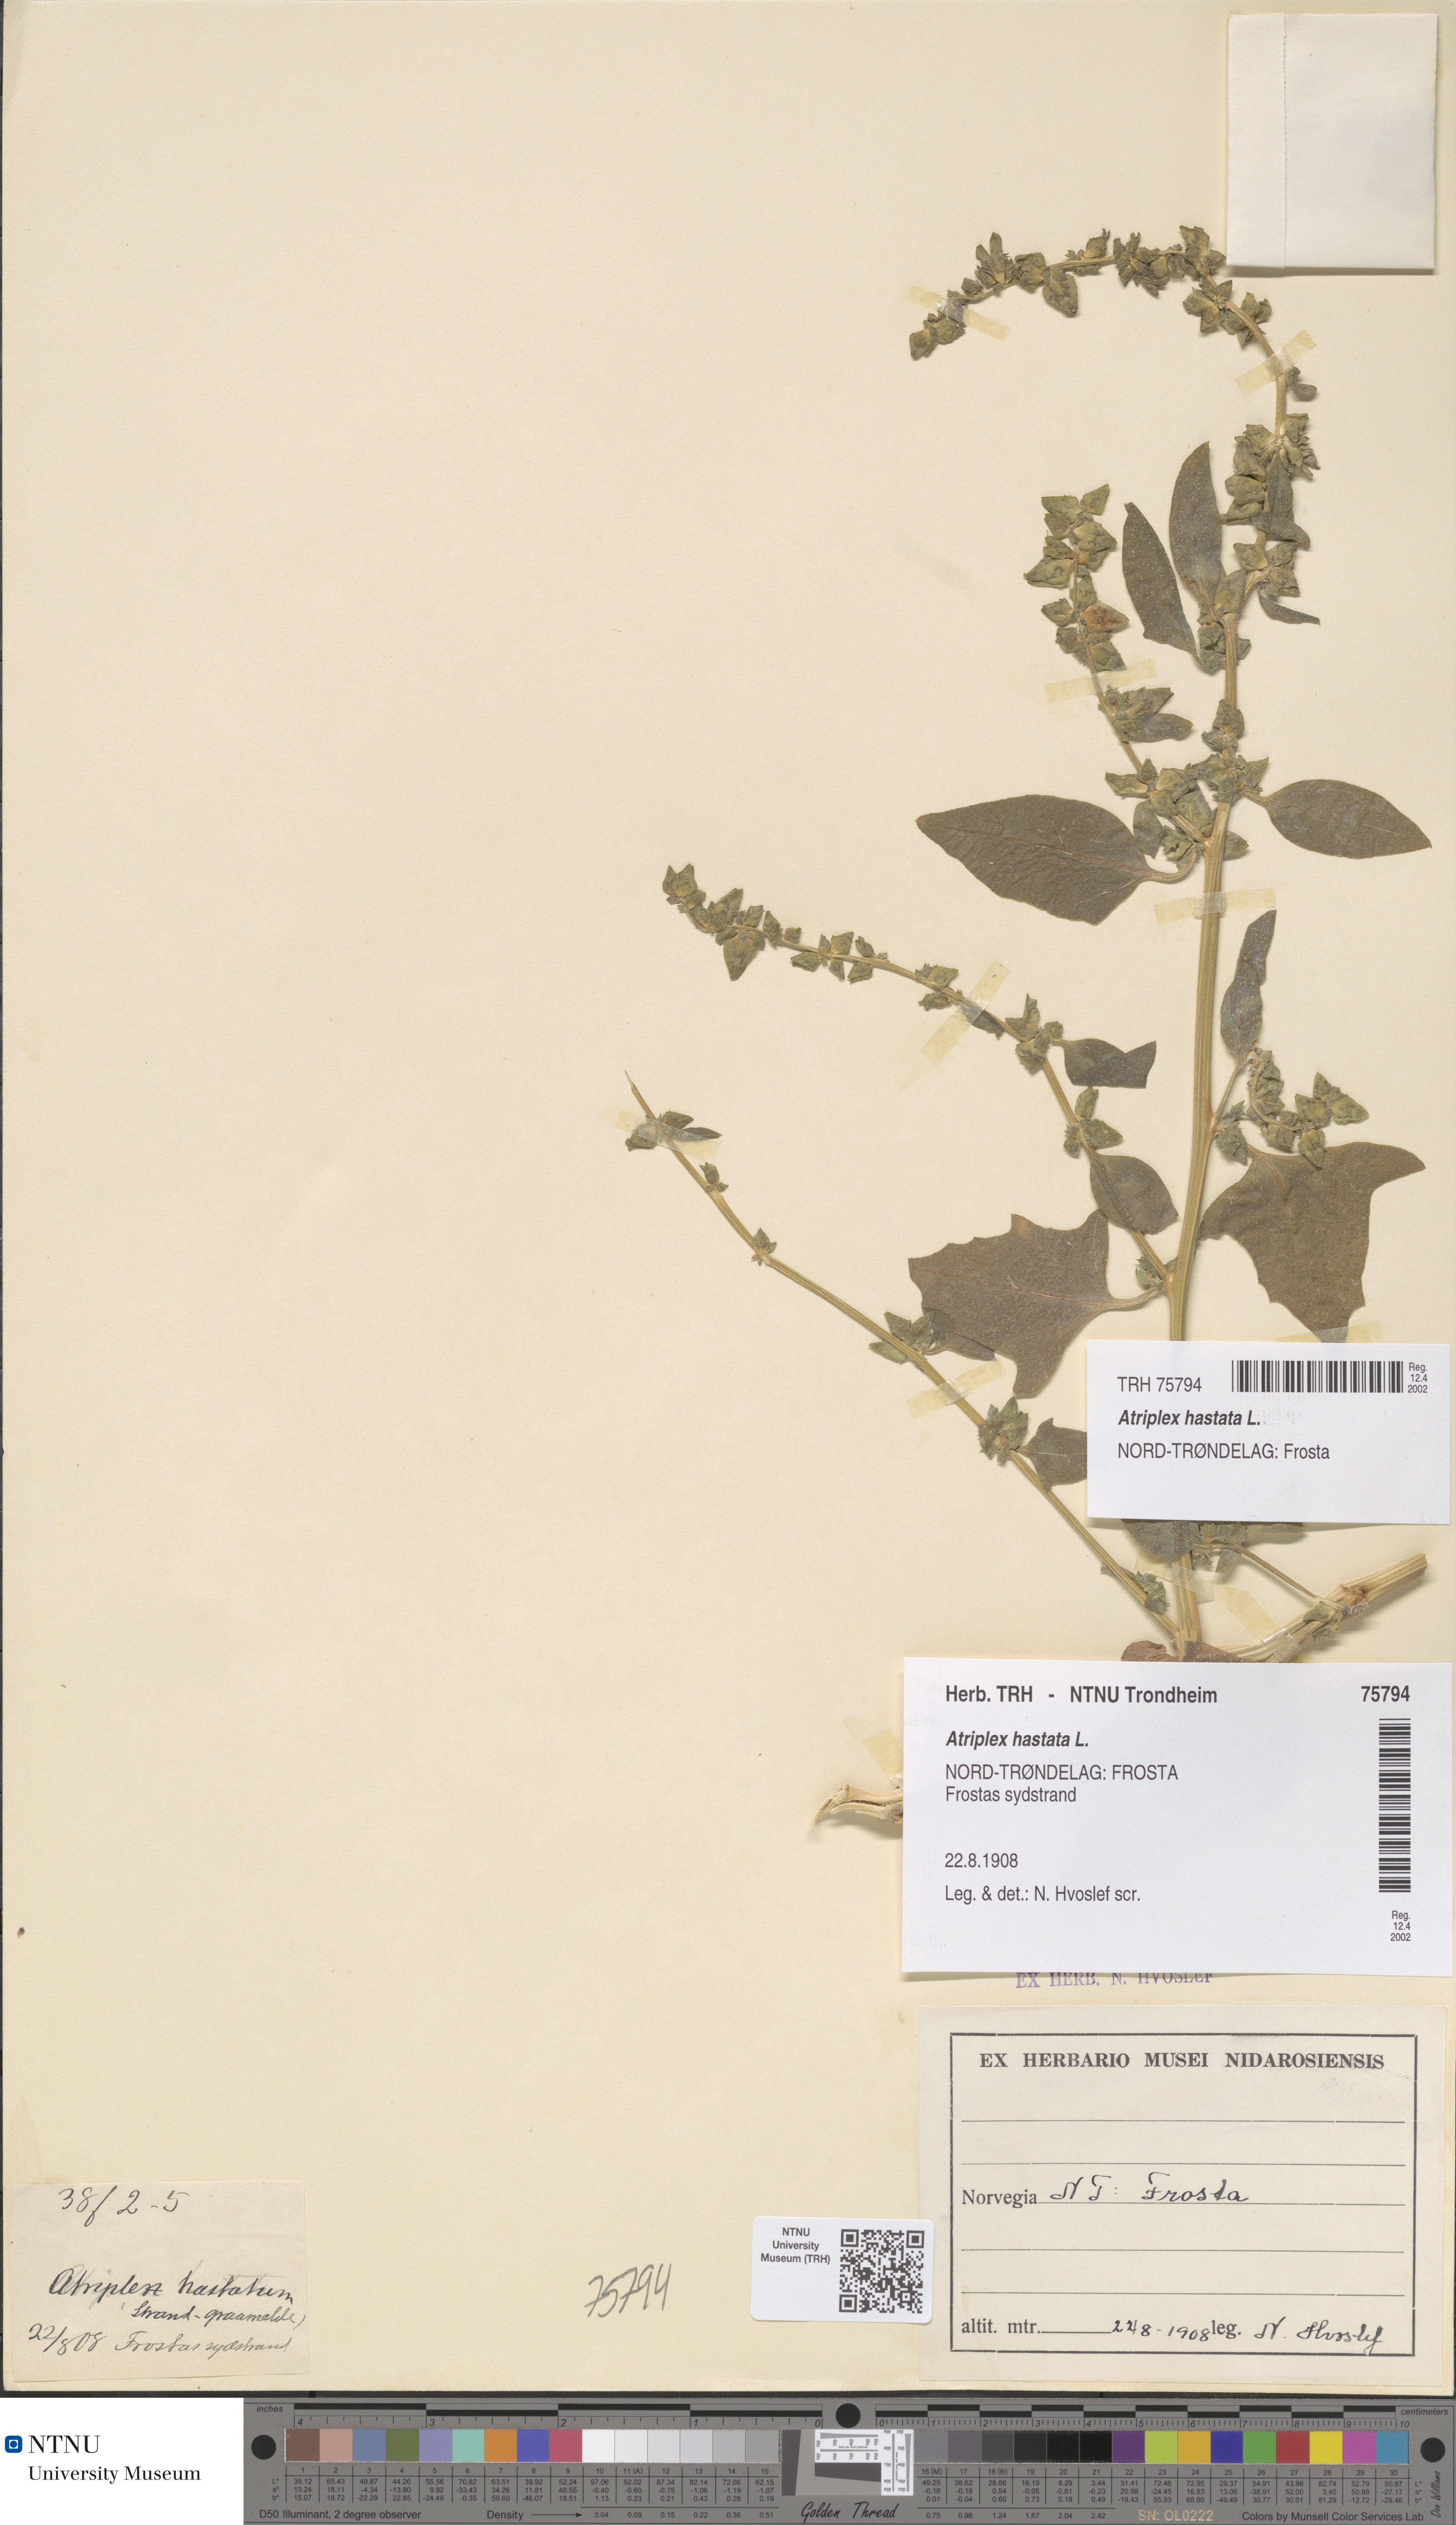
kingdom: Plantae
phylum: Tracheophyta
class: Magnoliopsida
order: Caryophyllales
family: Amaranthaceae
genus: Atriplex
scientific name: Atriplex prostrata
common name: Spear-leaved orache
